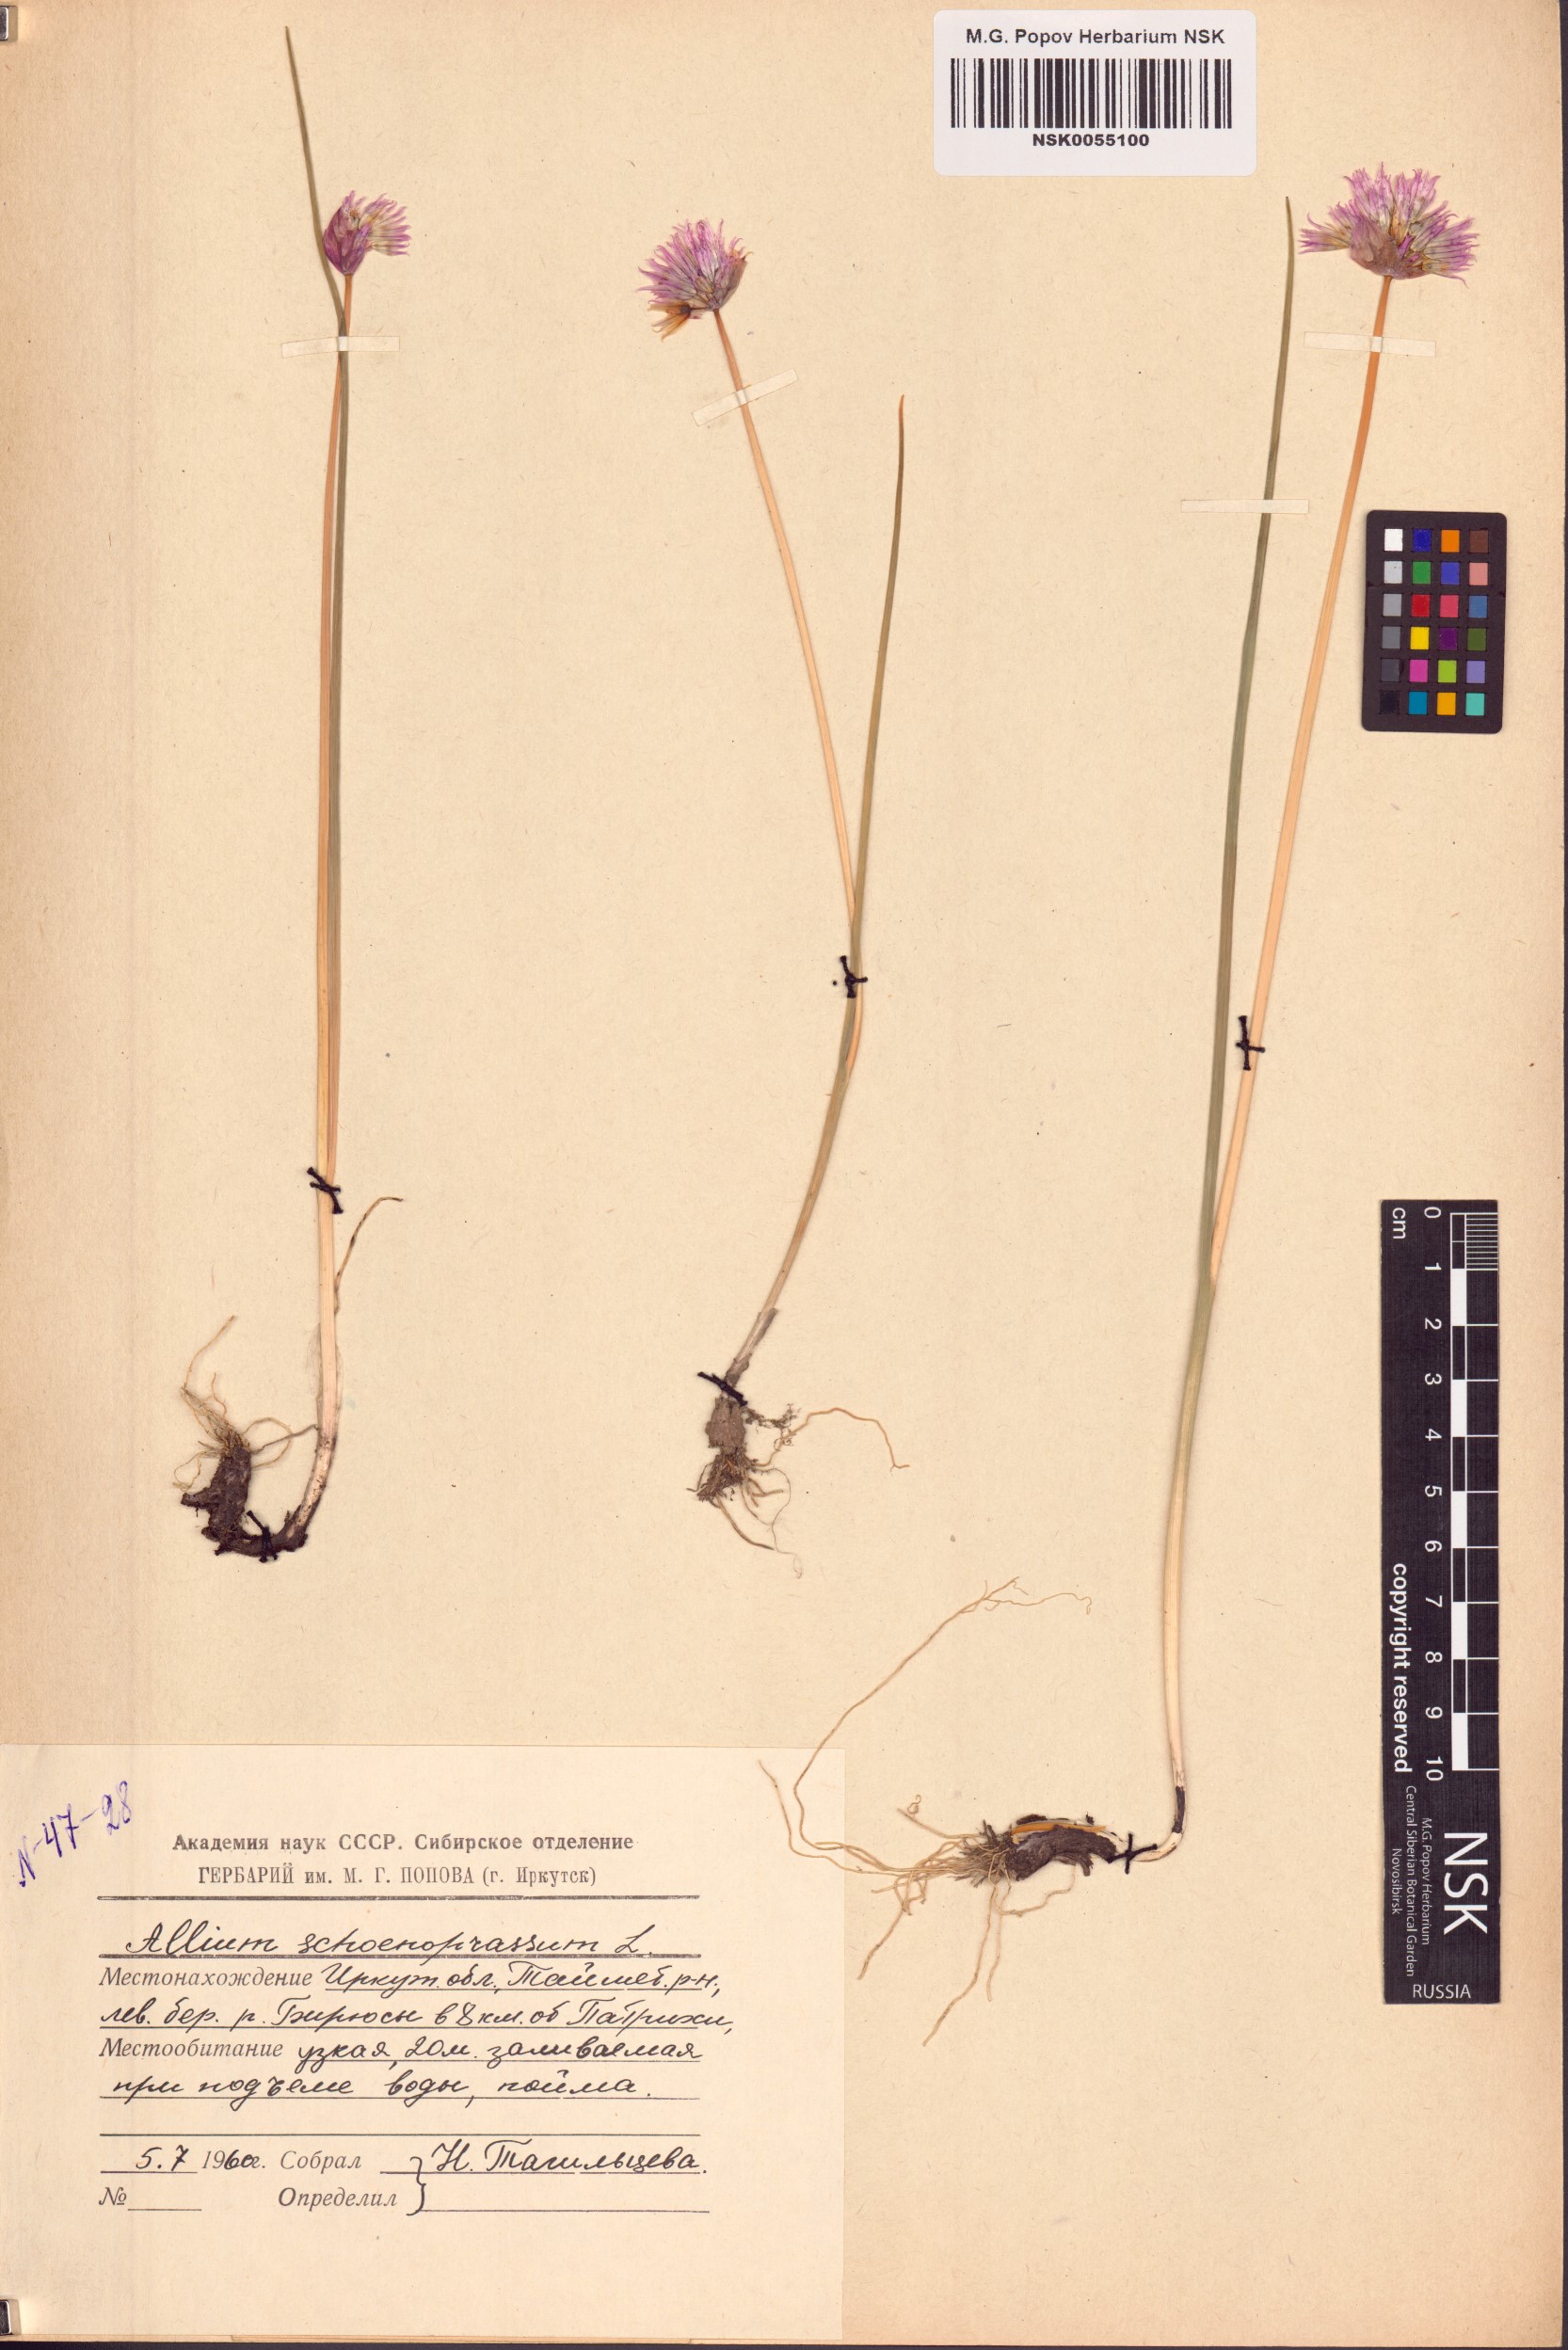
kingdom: Plantae
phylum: Tracheophyta
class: Liliopsida
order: Asparagales
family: Amaryllidaceae
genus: Allium
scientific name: Allium schoenoprasum
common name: Chives
